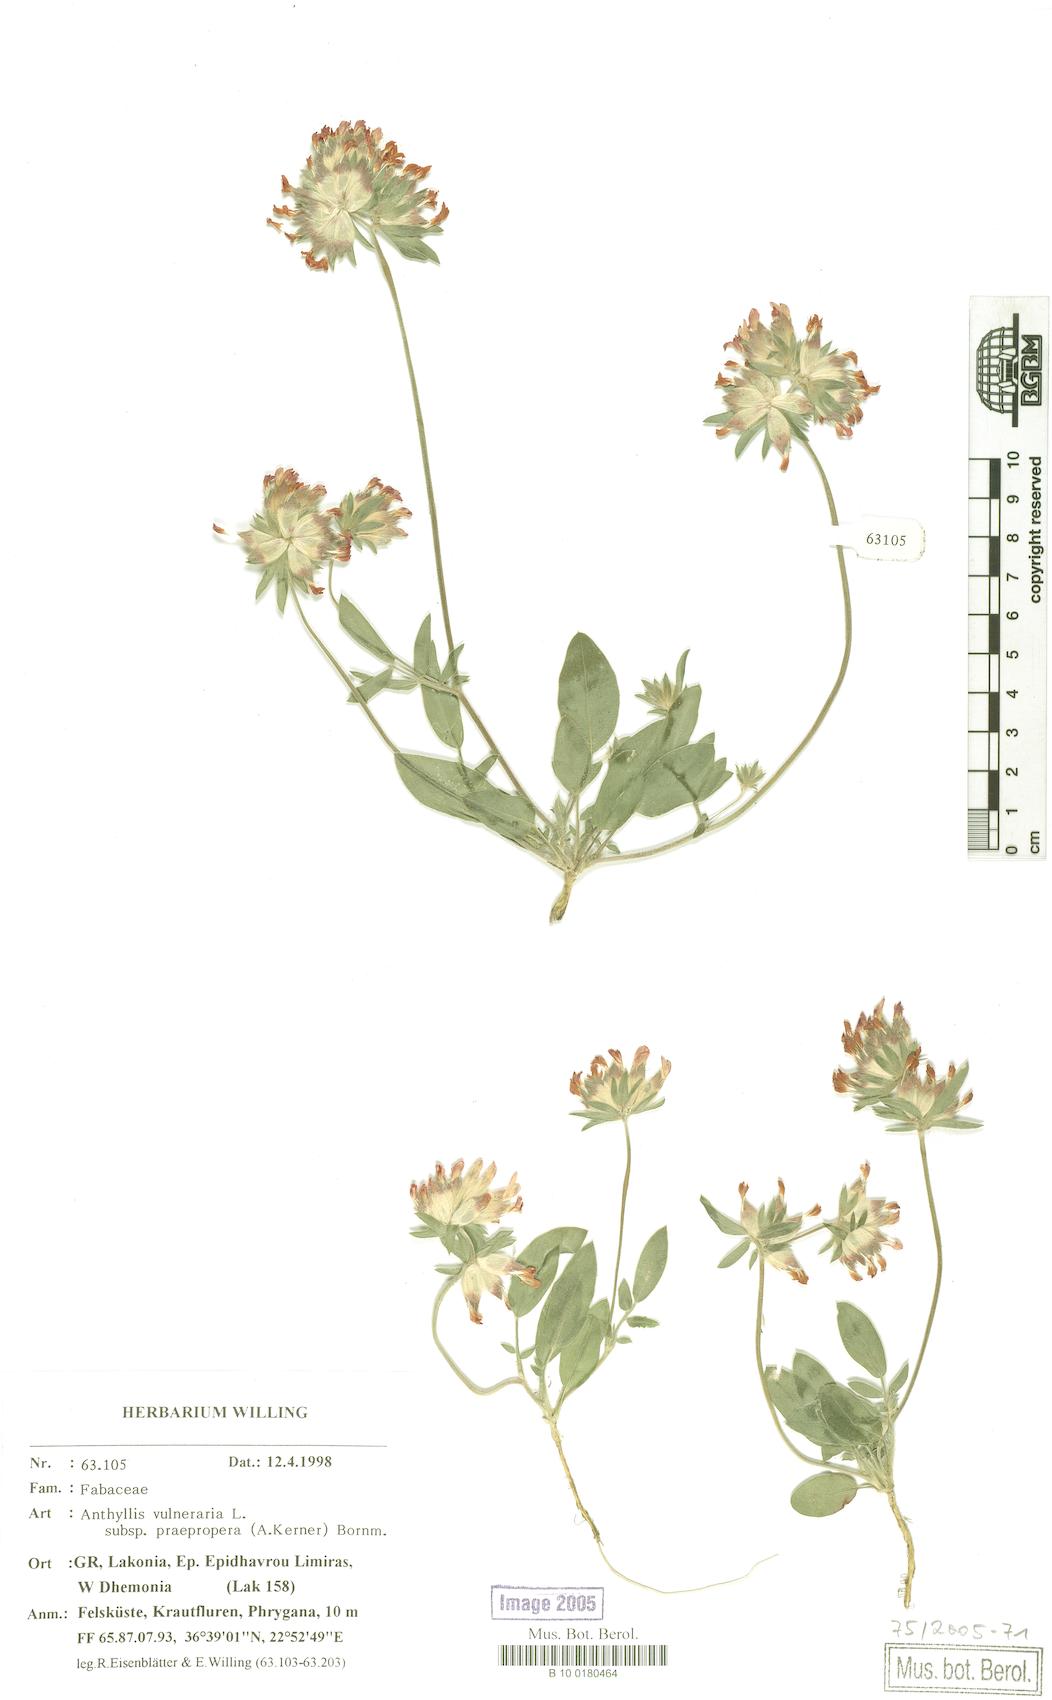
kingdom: Plantae
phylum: Tracheophyta
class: Magnoliopsida
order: Fabales
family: Fabaceae
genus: Anthyllis
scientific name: Anthyllis vulneraria
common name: Kidney vetch
